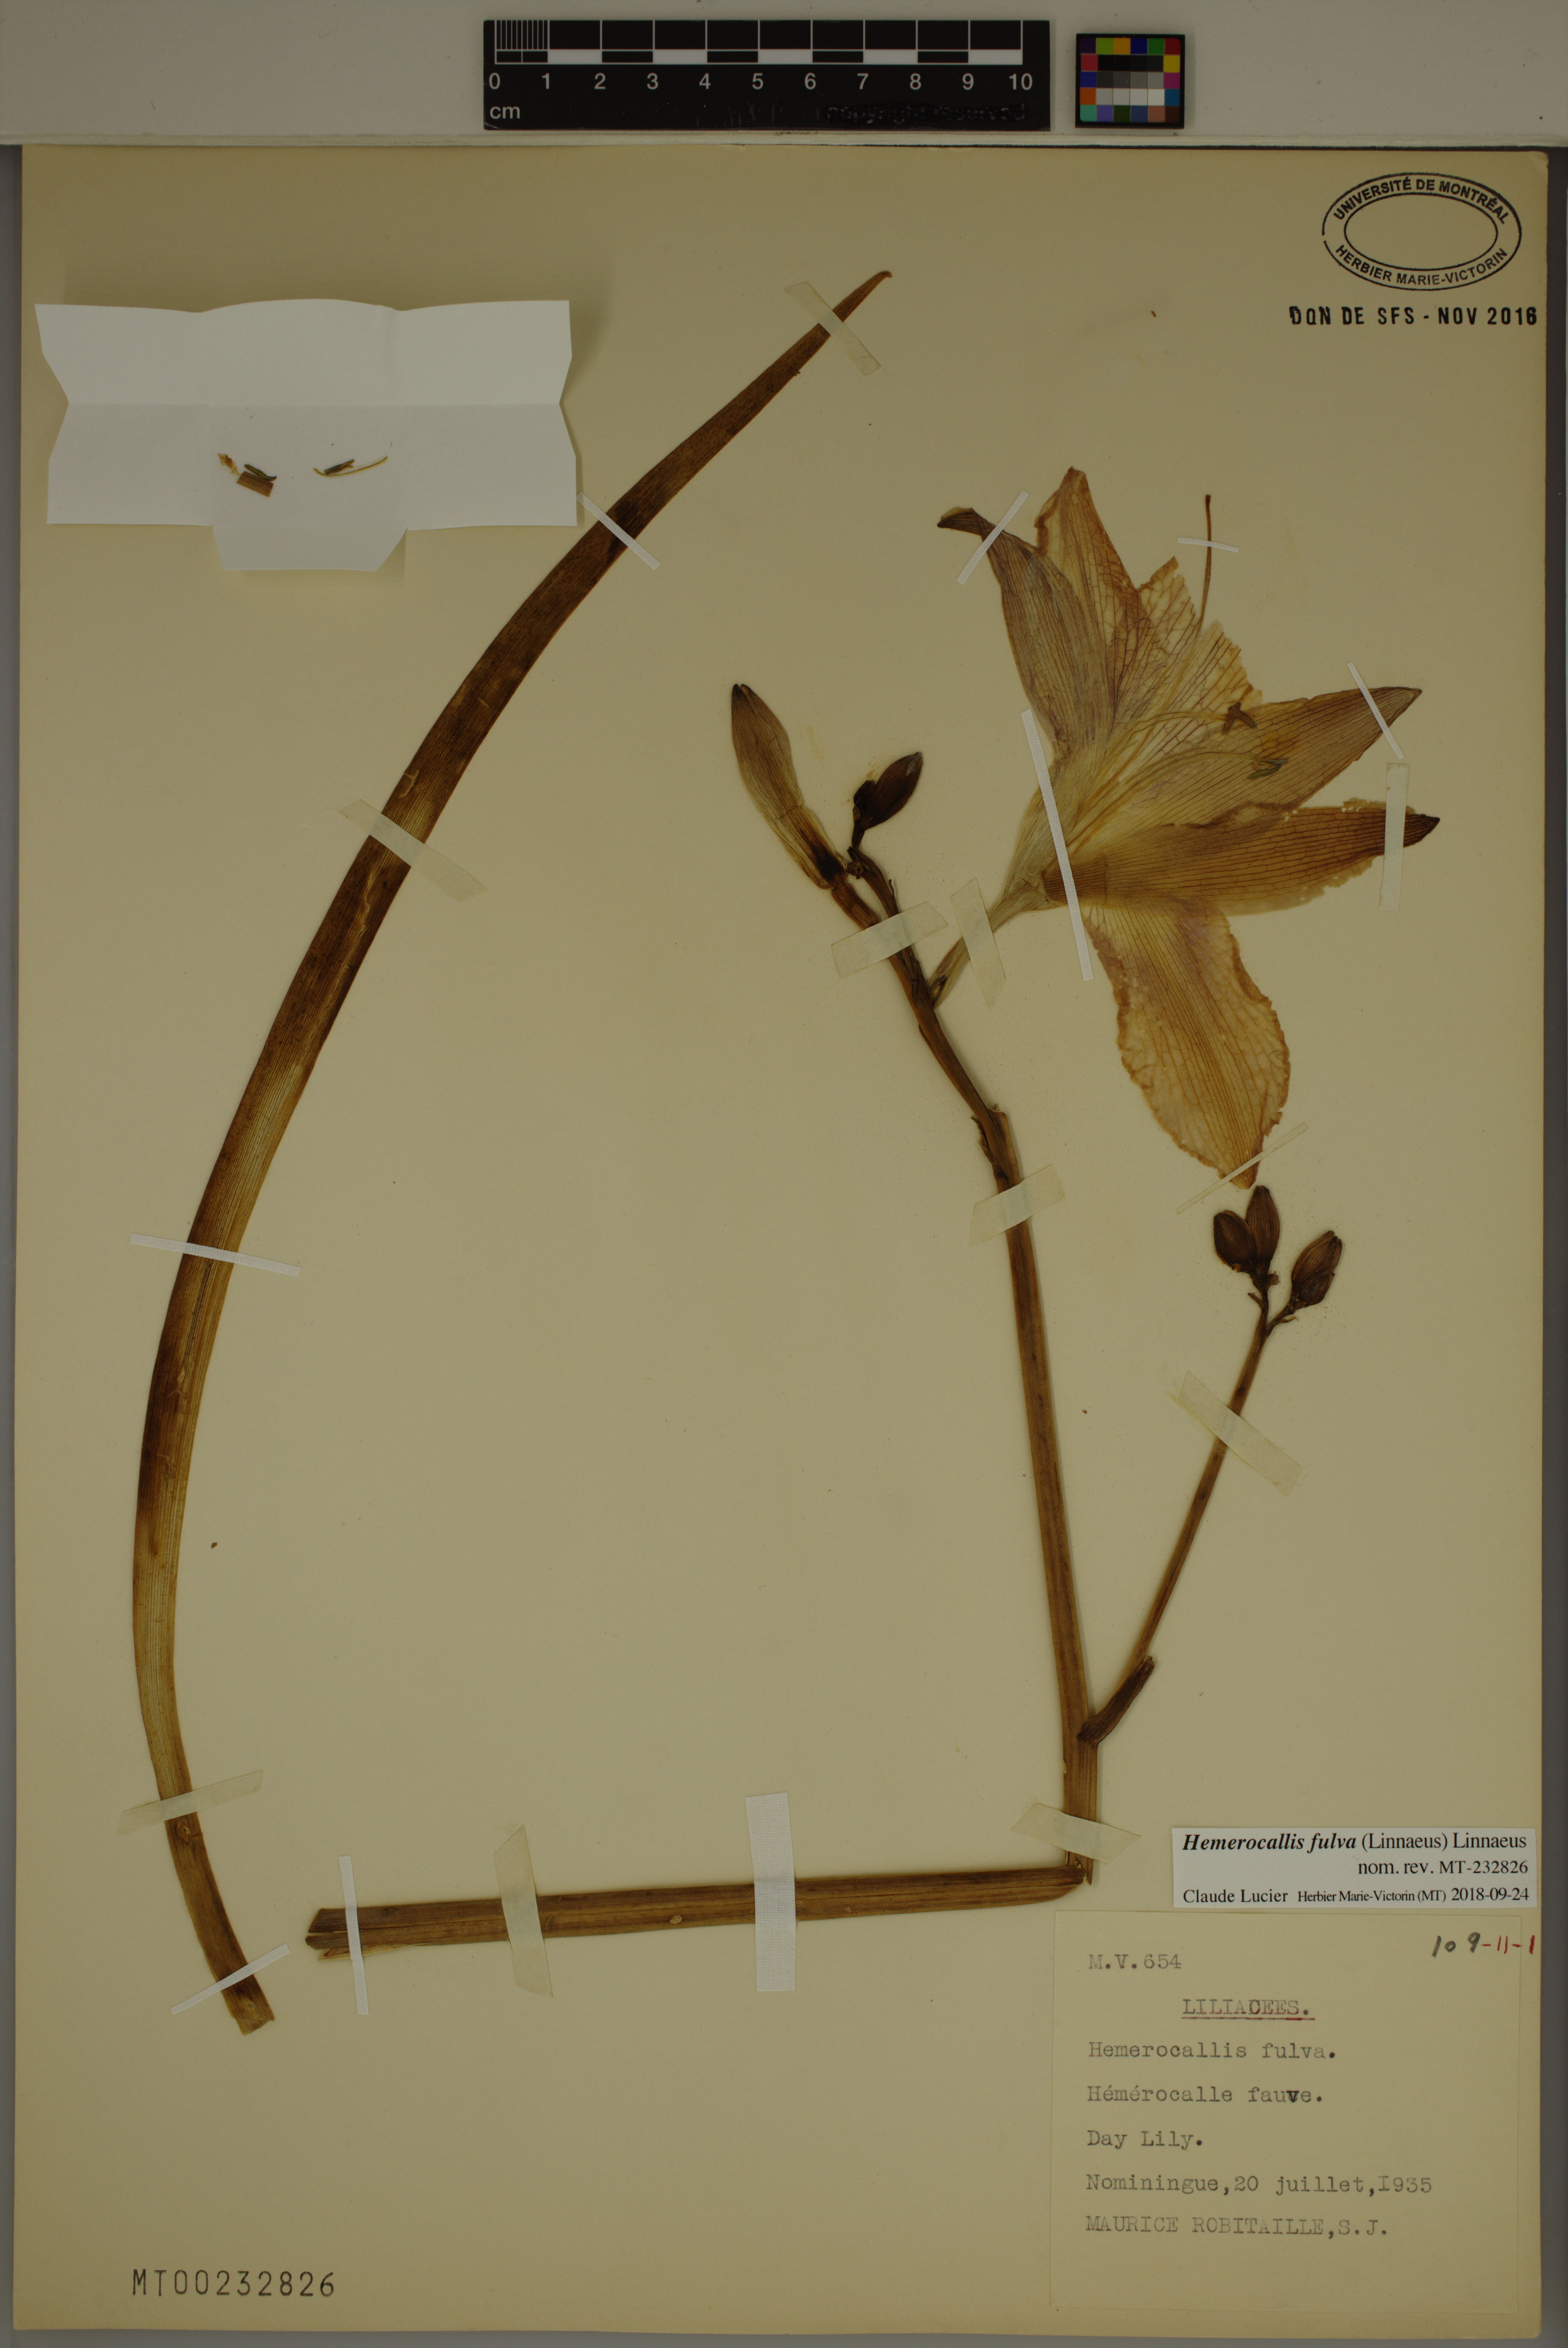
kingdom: Plantae
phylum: Tracheophyta
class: Liliopsida
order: Asparagales
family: Asphodelaceae
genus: Hemerocallis
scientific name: Hemerocallis fulva
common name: Orange day-lily
